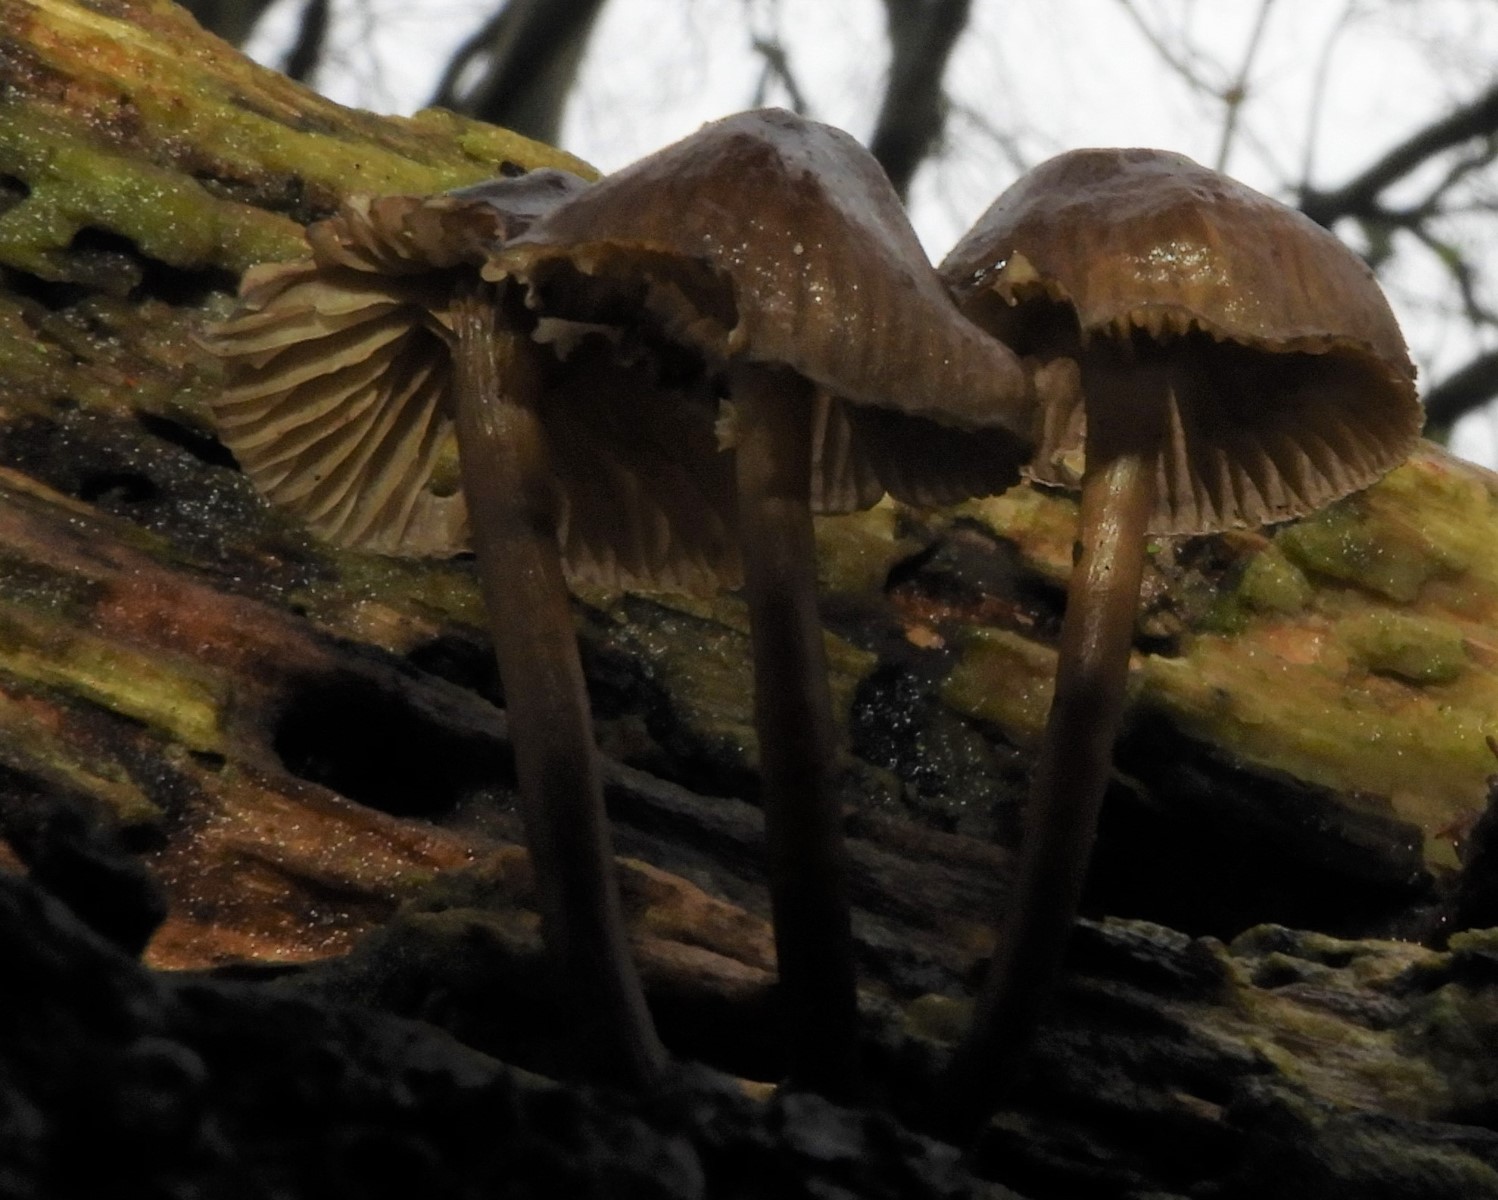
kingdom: Fungi
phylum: Basidiomycota
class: Agaricomycetes
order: Agaricales
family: Mycenaceae
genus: Mycena
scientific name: Mycena tintinnabulum
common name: vinter-huesvamp
